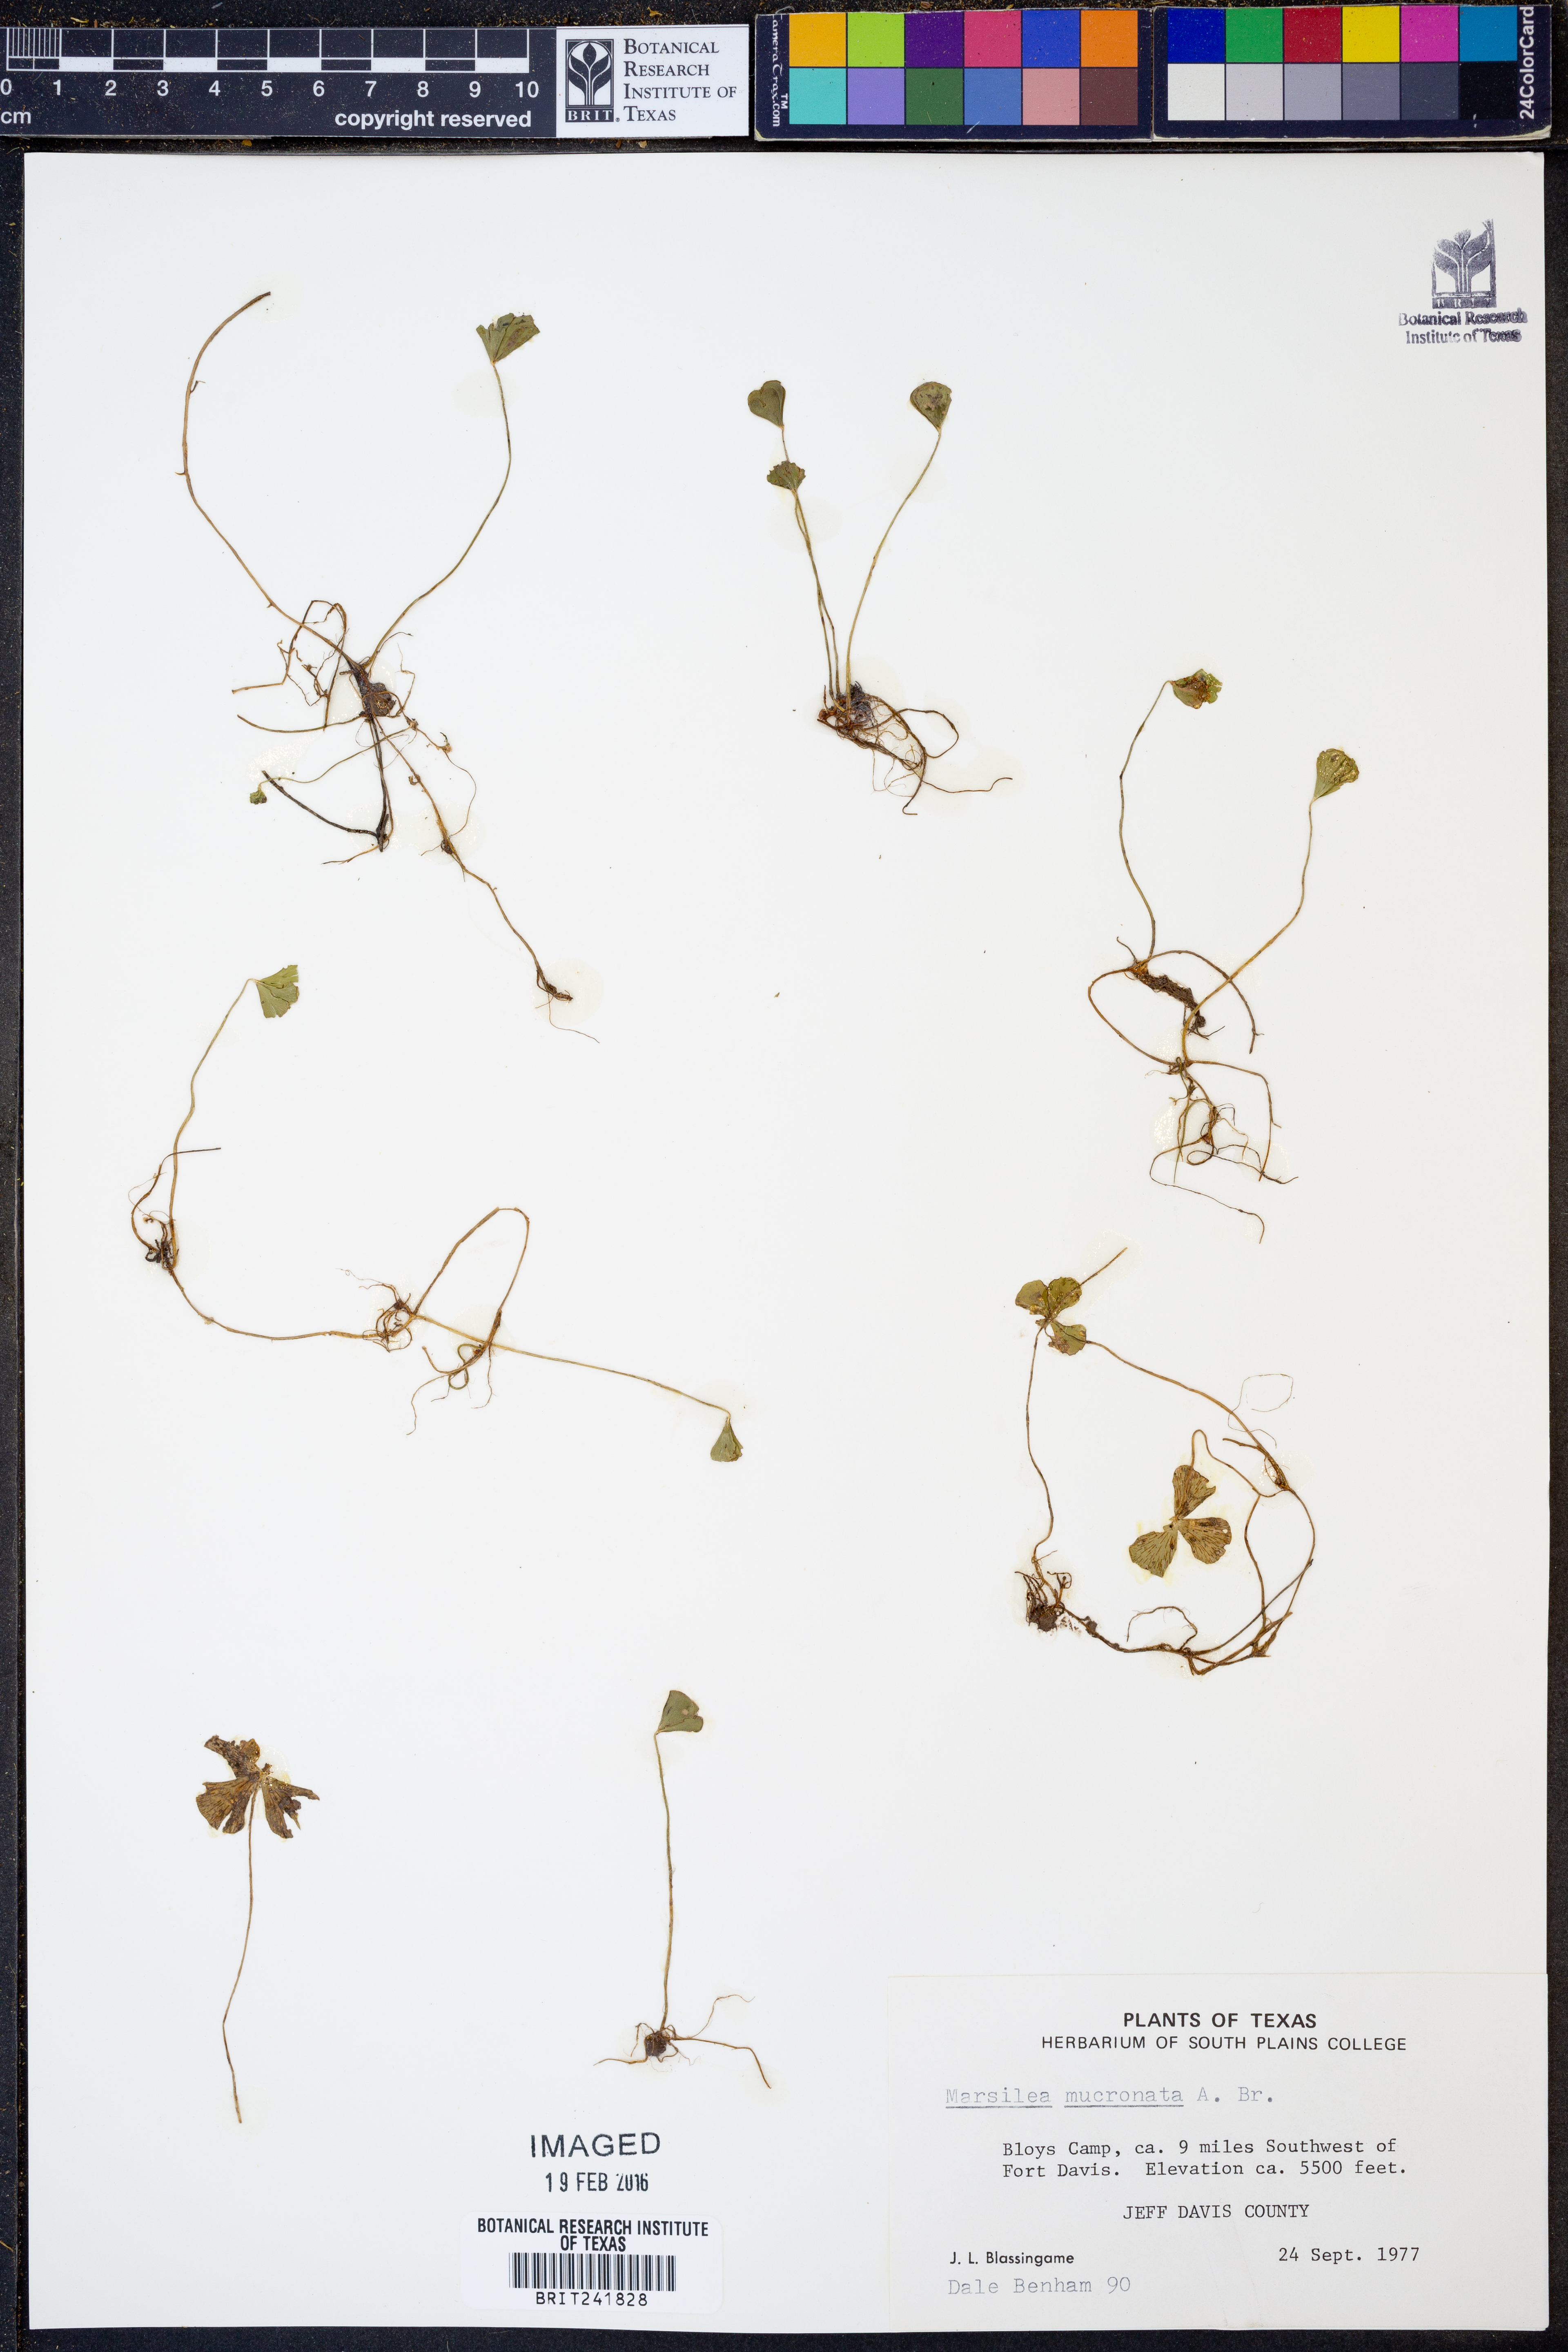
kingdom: Plantae
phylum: Tracheophyta
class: Polypodiopsida
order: Salviniales
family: Marsileaceae
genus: Marsilea
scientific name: Marsilea vestita
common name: Hooked-pepperwort
